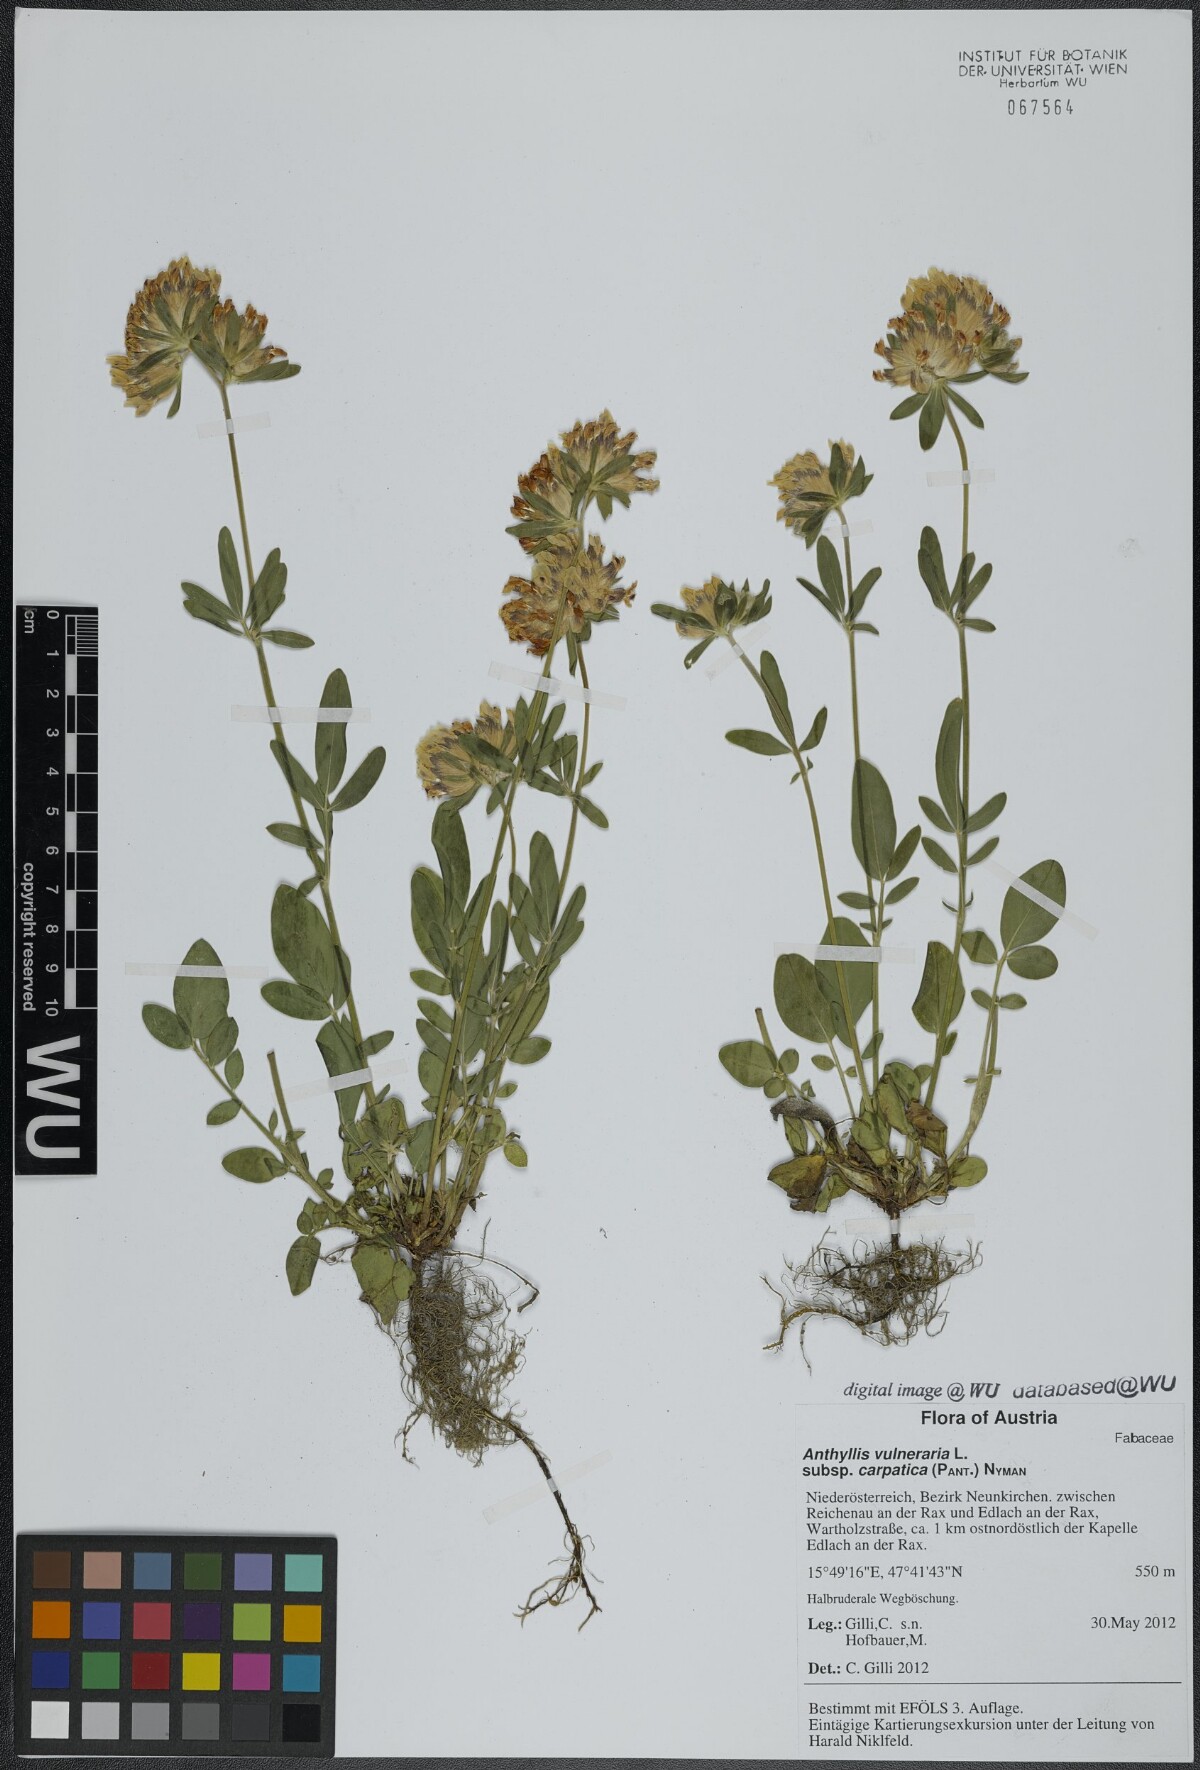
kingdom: Plantae
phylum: Tracheophyta
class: Magnoliopsida
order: Fabales
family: Fabaceae
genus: Anthyllis
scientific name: Anthyllis vulneraria
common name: Kidney vetch
